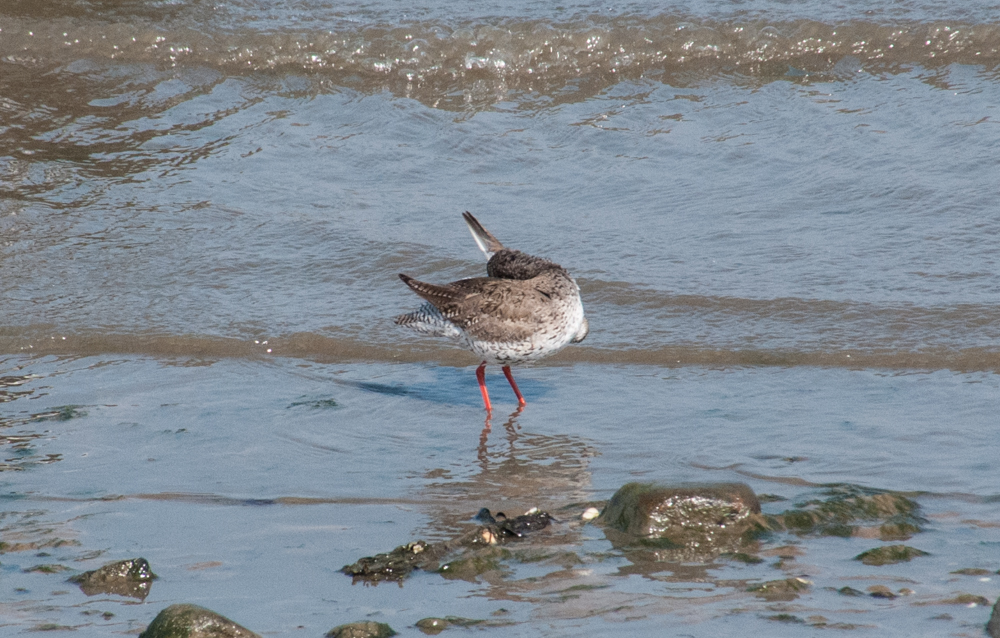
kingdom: Animalia
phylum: Chordata
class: Aves
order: Charadriiformes
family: Scolopacidae
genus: Tringa
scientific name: Tringa totanus
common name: Common redshank
